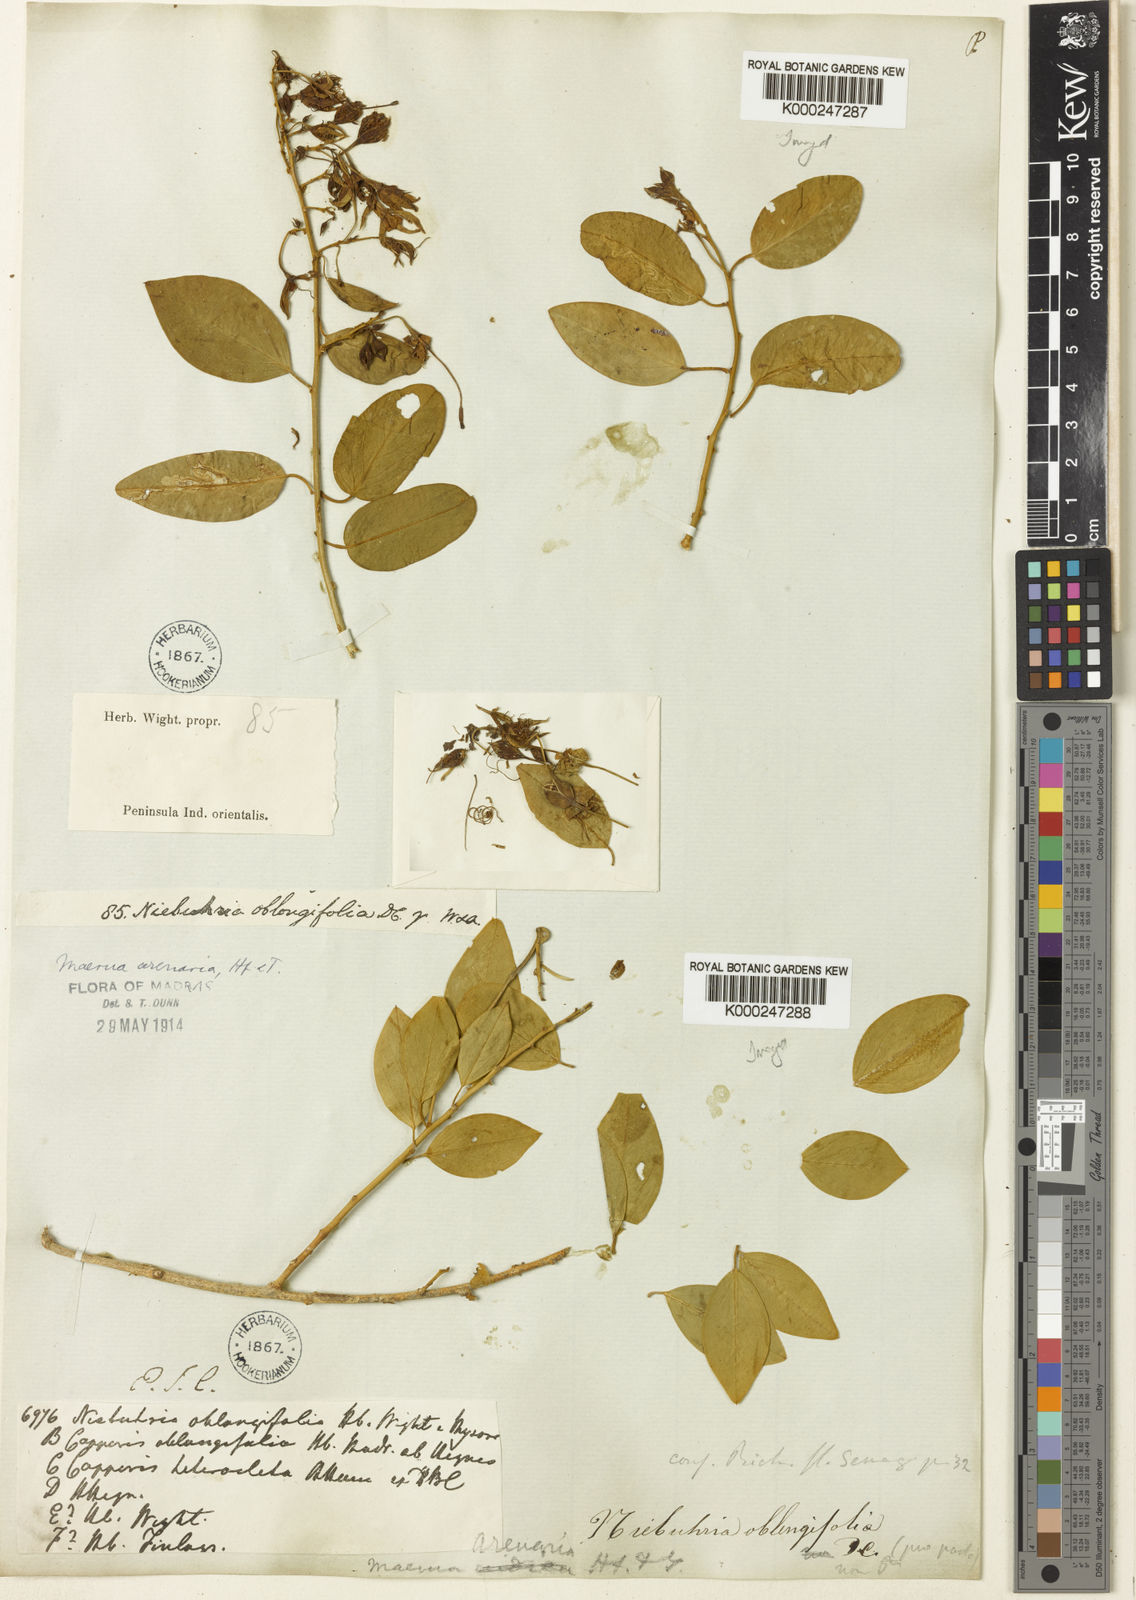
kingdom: Plantae
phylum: Tracheophyta
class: Magnoliopsida
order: Brassicales
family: Capparaceae
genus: Maerua
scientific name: Maerua oblongifolia
